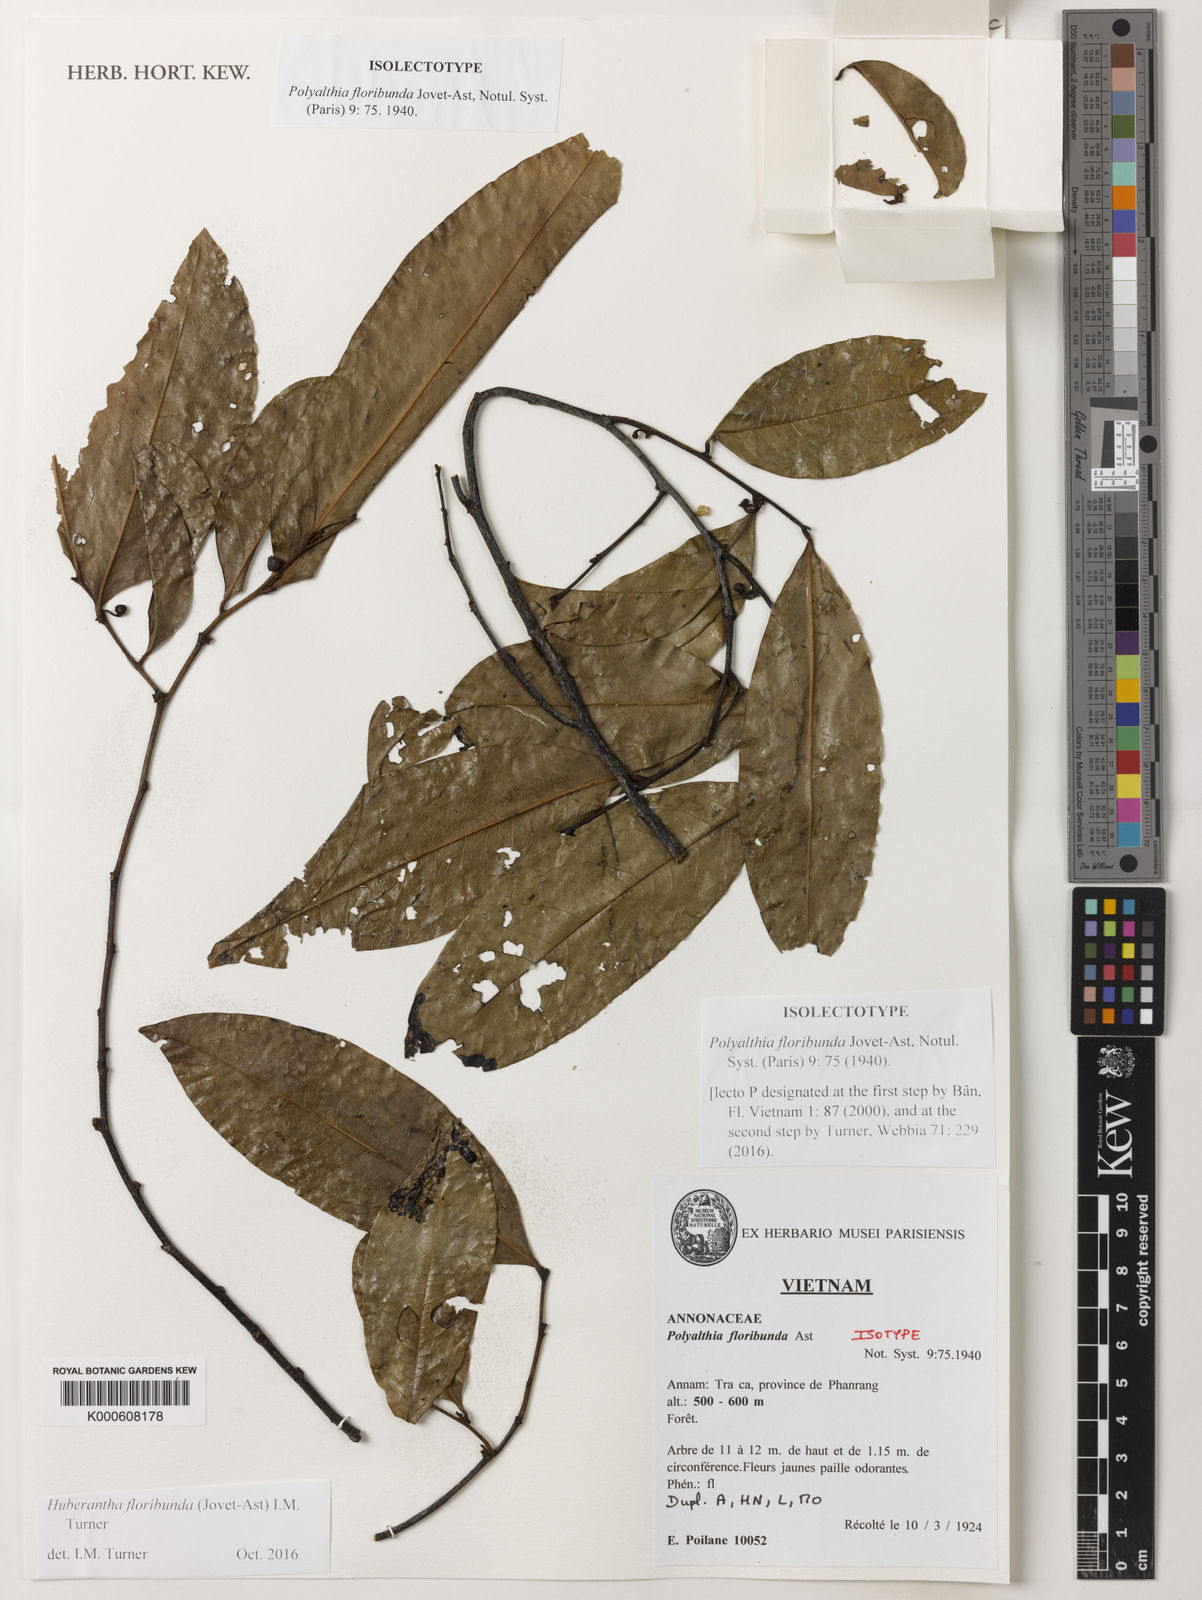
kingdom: Plantae
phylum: Tracheophyta
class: Magnoliopsida
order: Magnoliales
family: Annonaceae
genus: Polyalthia
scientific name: Polyalthia floribunda
